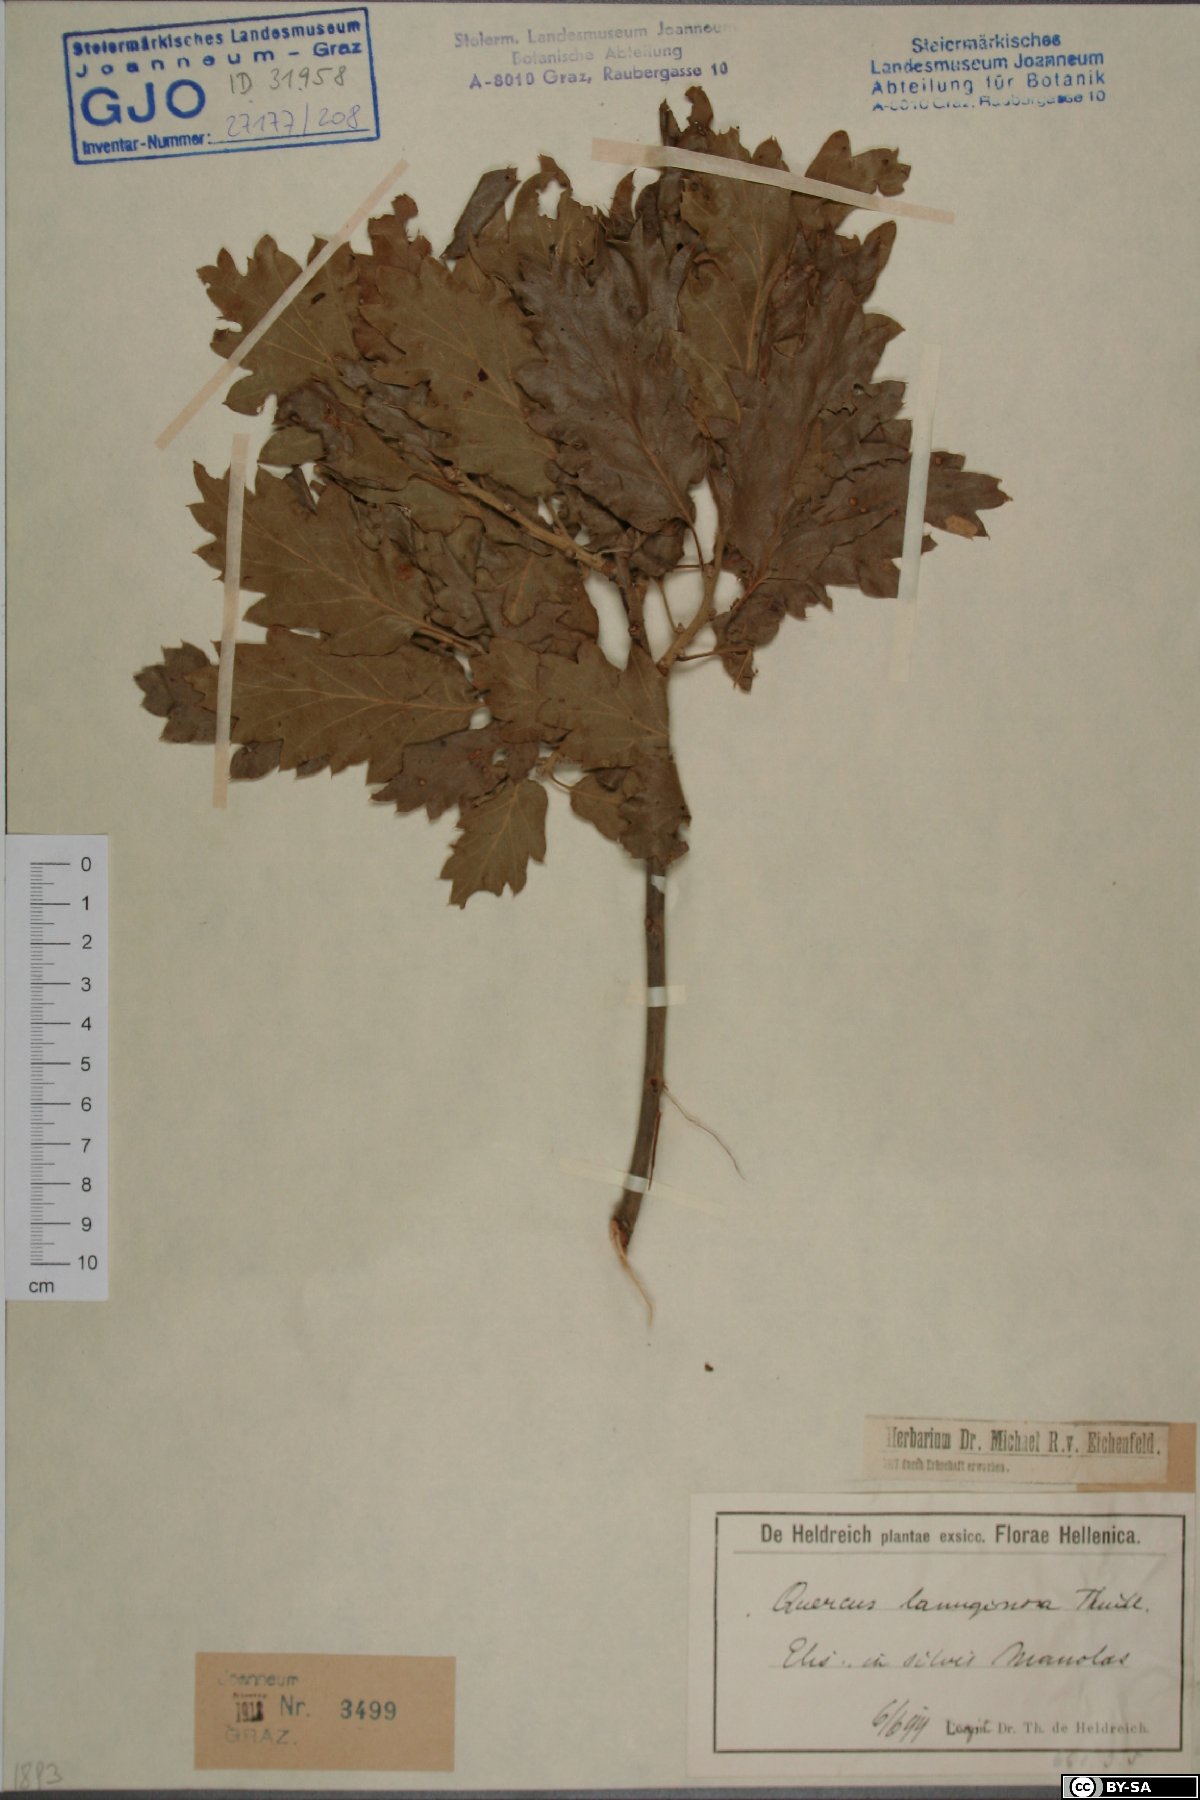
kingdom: Plantae
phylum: Tracheophyta
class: Magnoliopsida
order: Fagales
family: Fagaceae
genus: Quercus
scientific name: Quercus pubescens
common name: Downy oak
